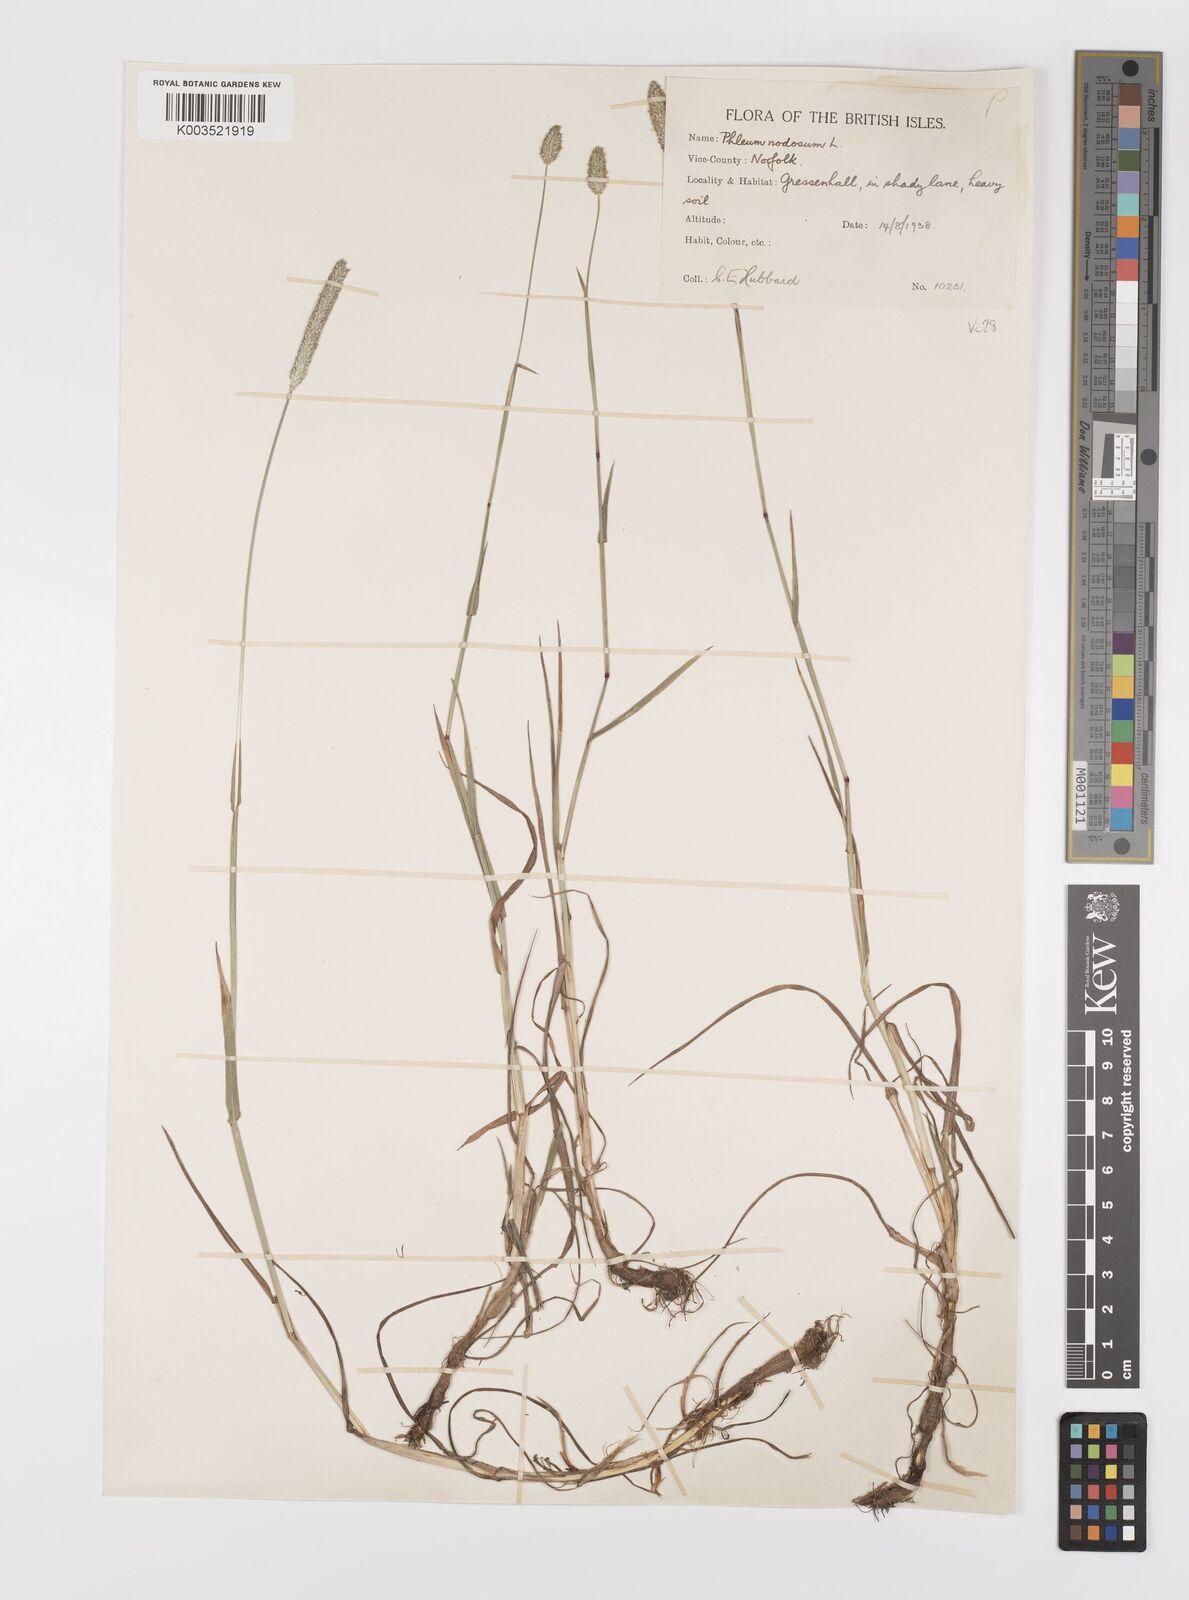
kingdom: Plantae
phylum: Tracheophyta
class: Liliopsida
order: Poales
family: Poaceae
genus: Phleum
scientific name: Phleum bertolonii
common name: Smaller cat's-tail
